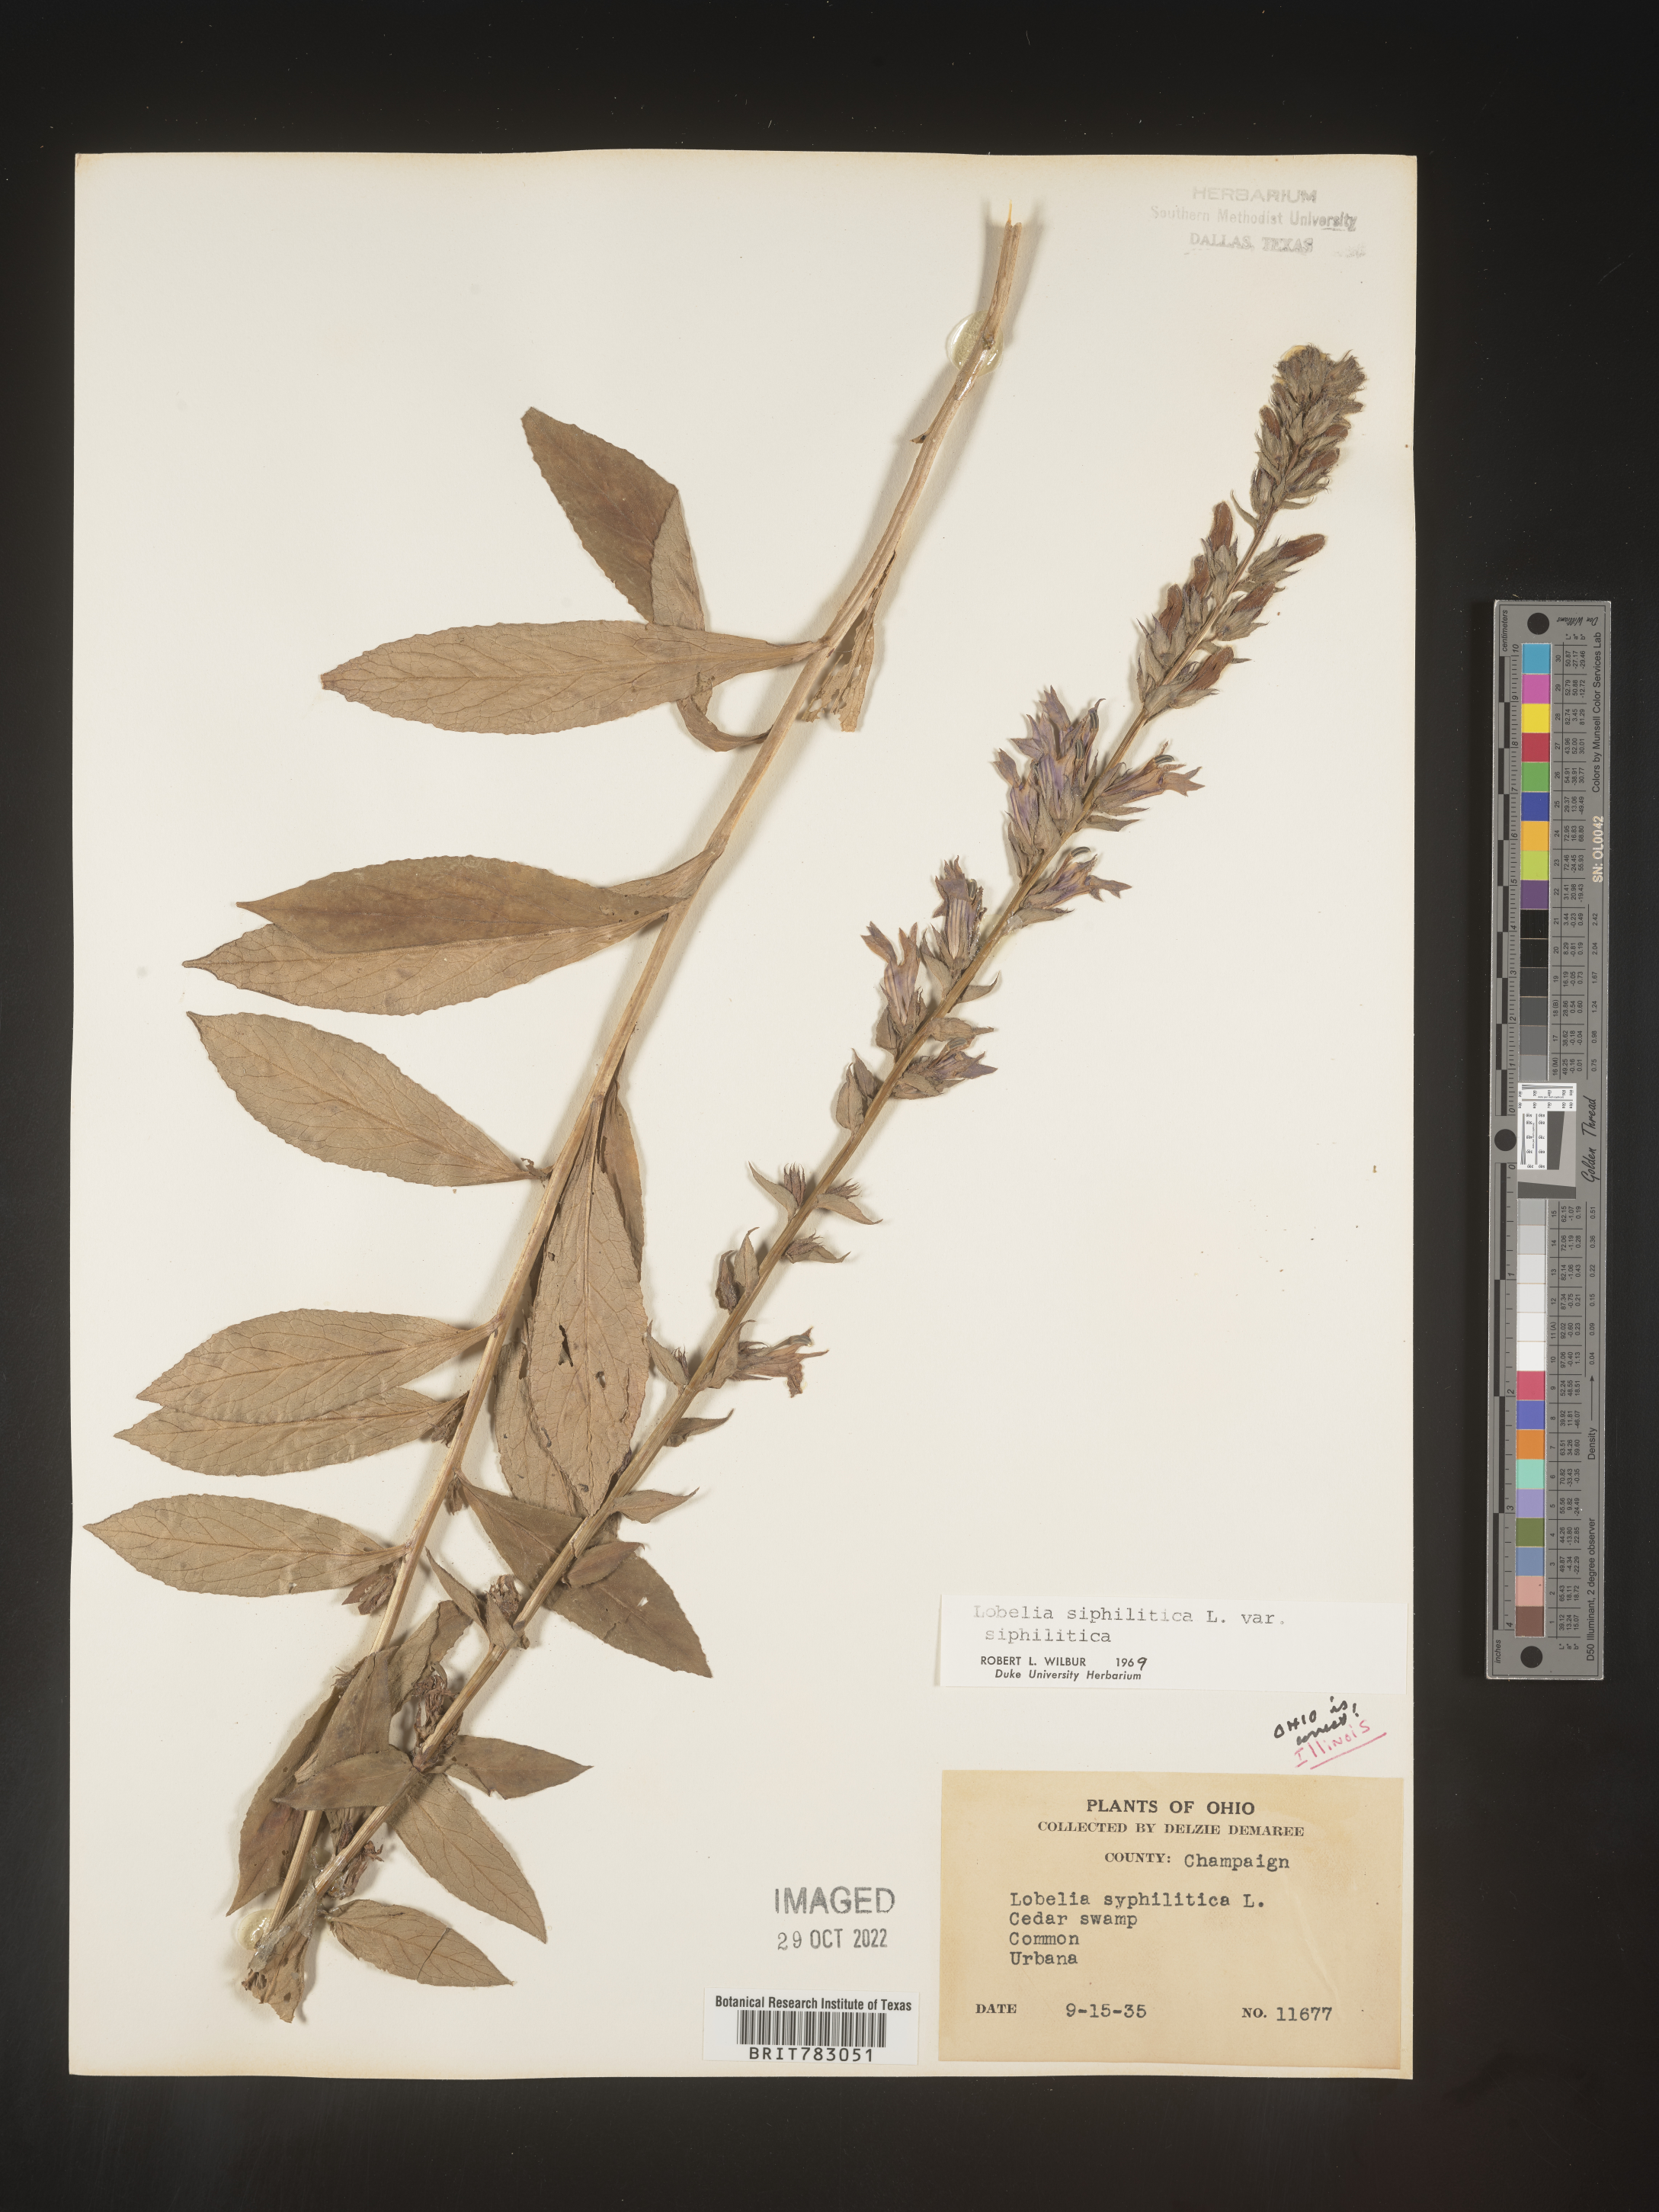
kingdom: Plantae
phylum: Tracheophyta
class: Magnoliopsida
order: Asterales
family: Campanulaceae
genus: Lobelia
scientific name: Lobelia siphilitica
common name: Great lobelia
